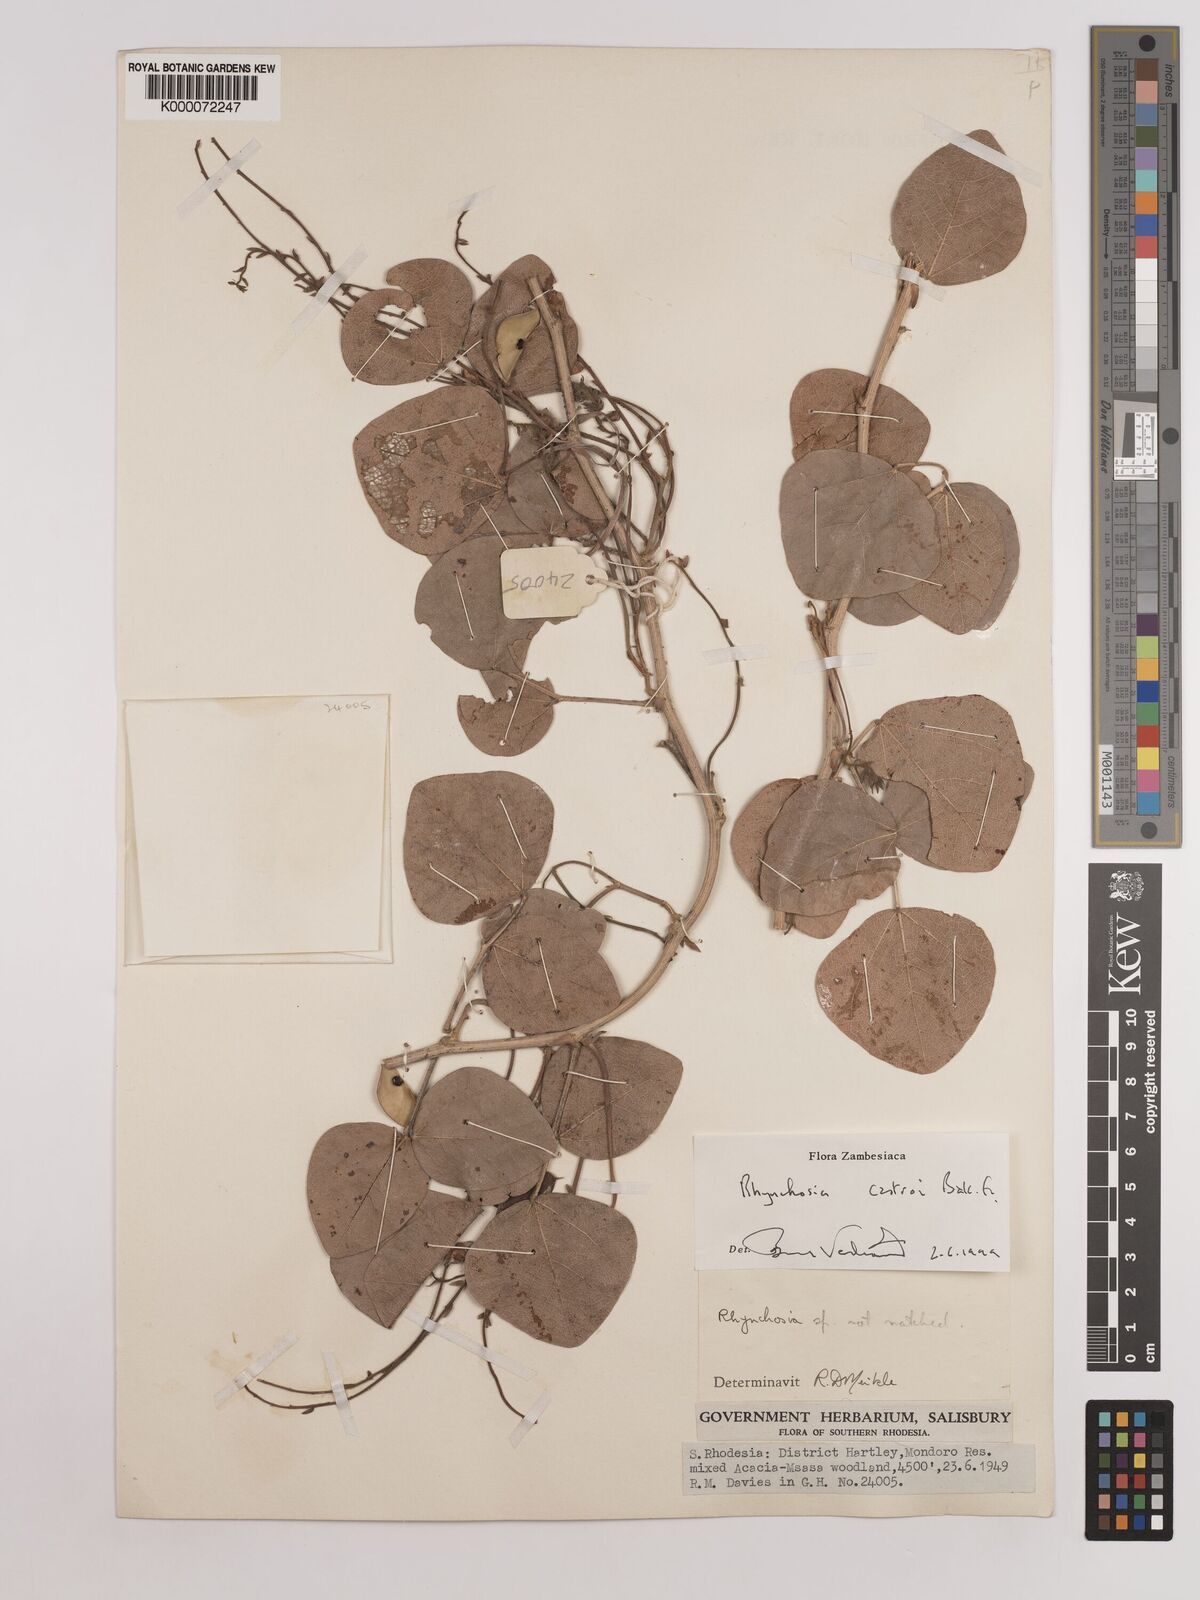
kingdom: Plantae
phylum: Tracheophyta
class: Magnoliopsida
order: Fabales
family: Fabaceae
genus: Rhynchosia
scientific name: Rhynchosia castroi
